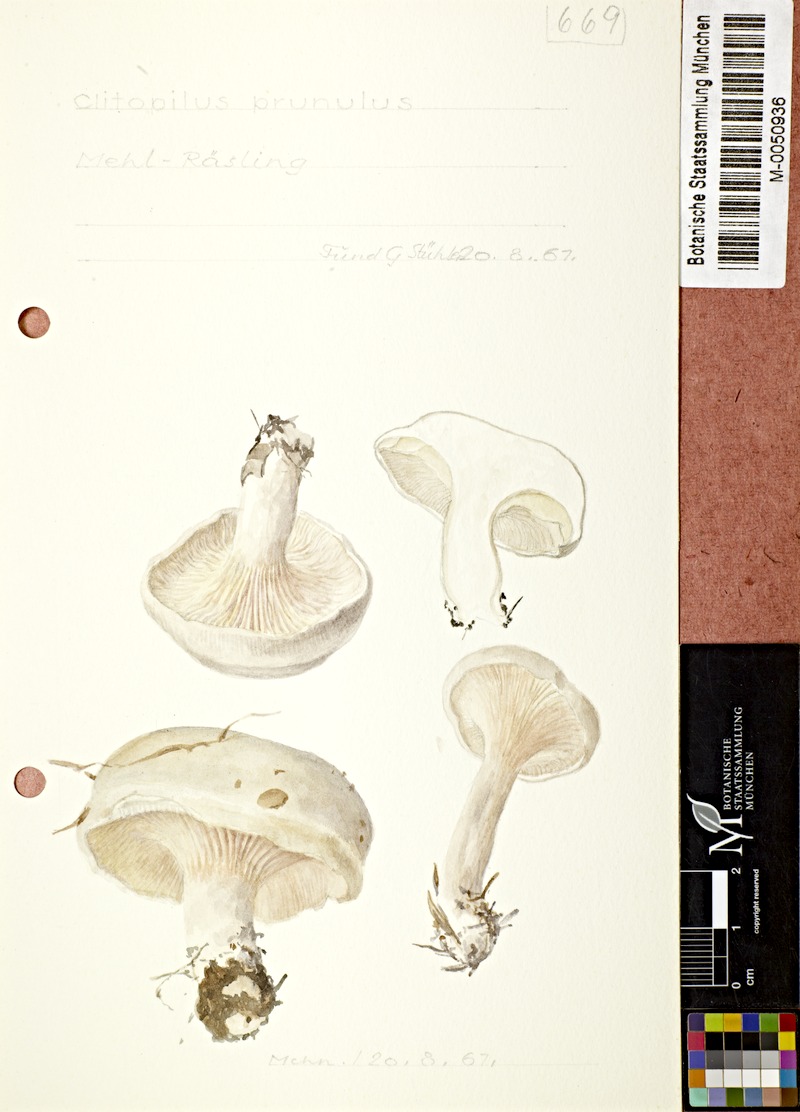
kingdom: Fungi
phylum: Basidiomycota
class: Agaricomycetes
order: Agaricales
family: Entolomataceae
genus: Clitopilus
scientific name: Clitopilus prunulus
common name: The miller
